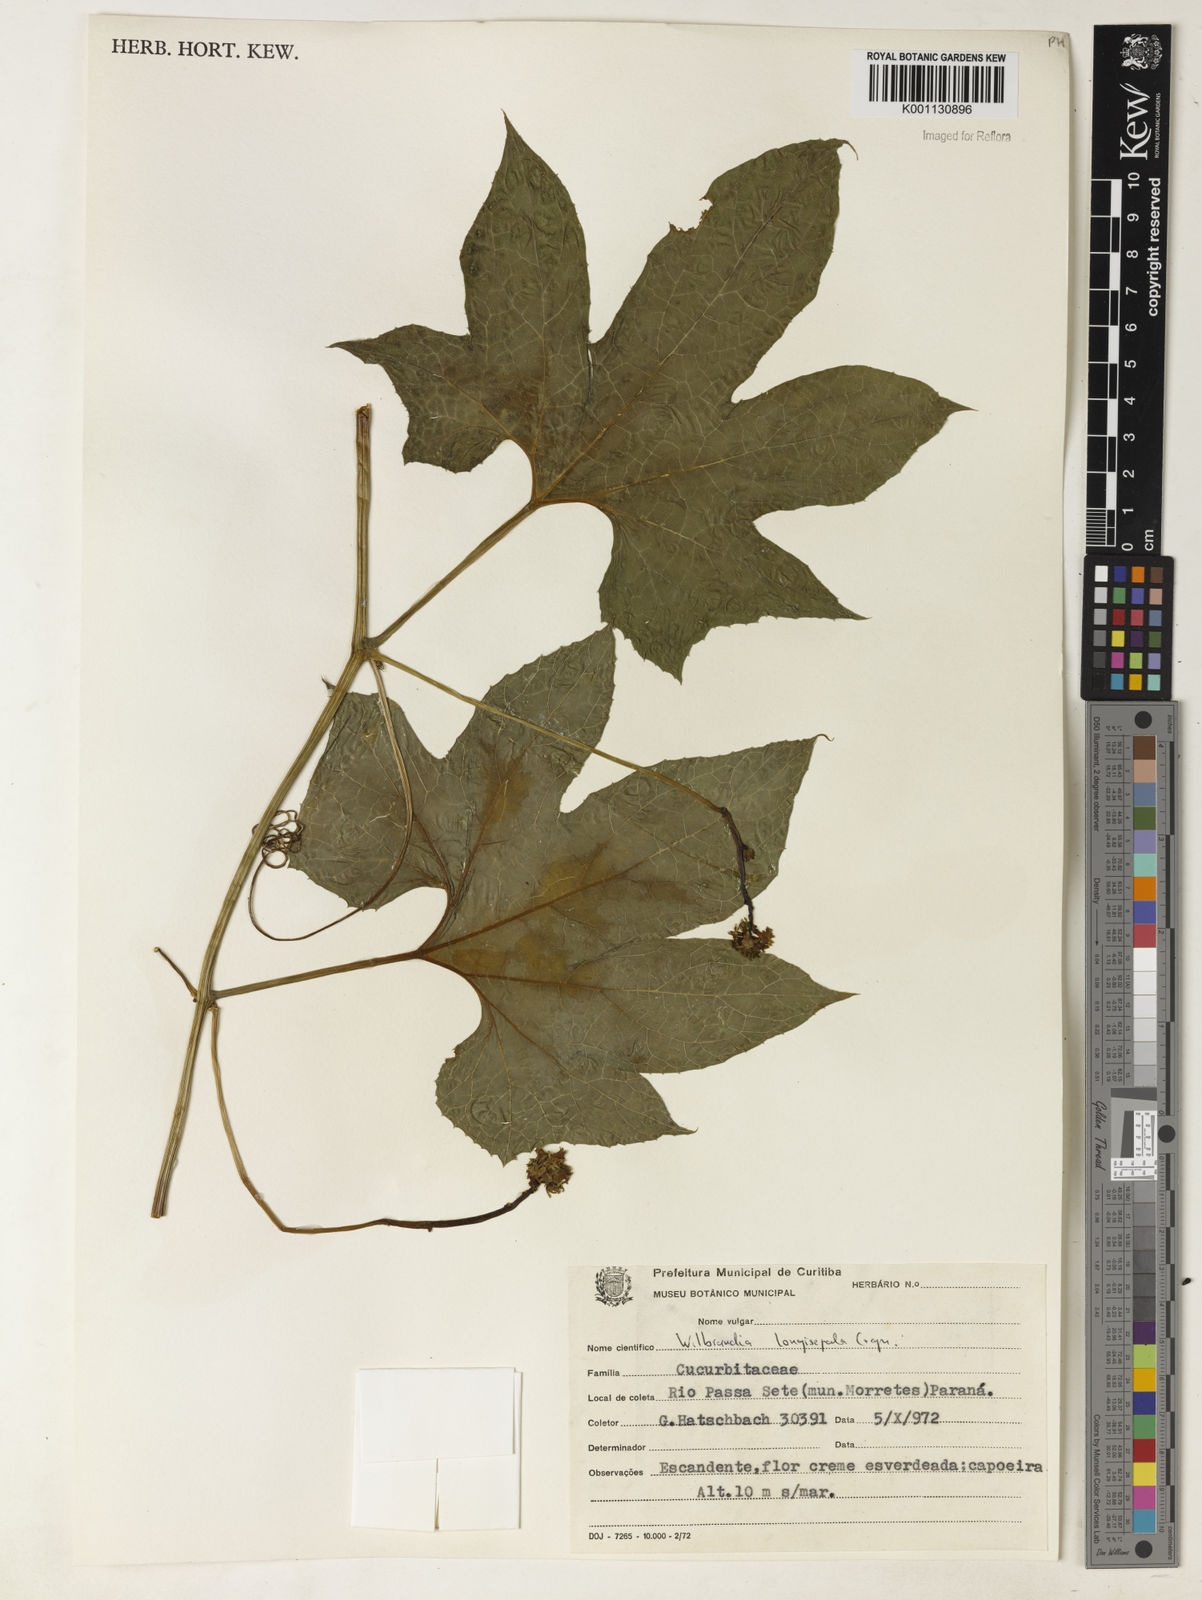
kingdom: Plantae
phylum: Tracheophyta
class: Magnoliopsida
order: Cucurbitales
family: Cucurbitaceae
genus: Wilbrandia
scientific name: Wilbrandia longisepala
